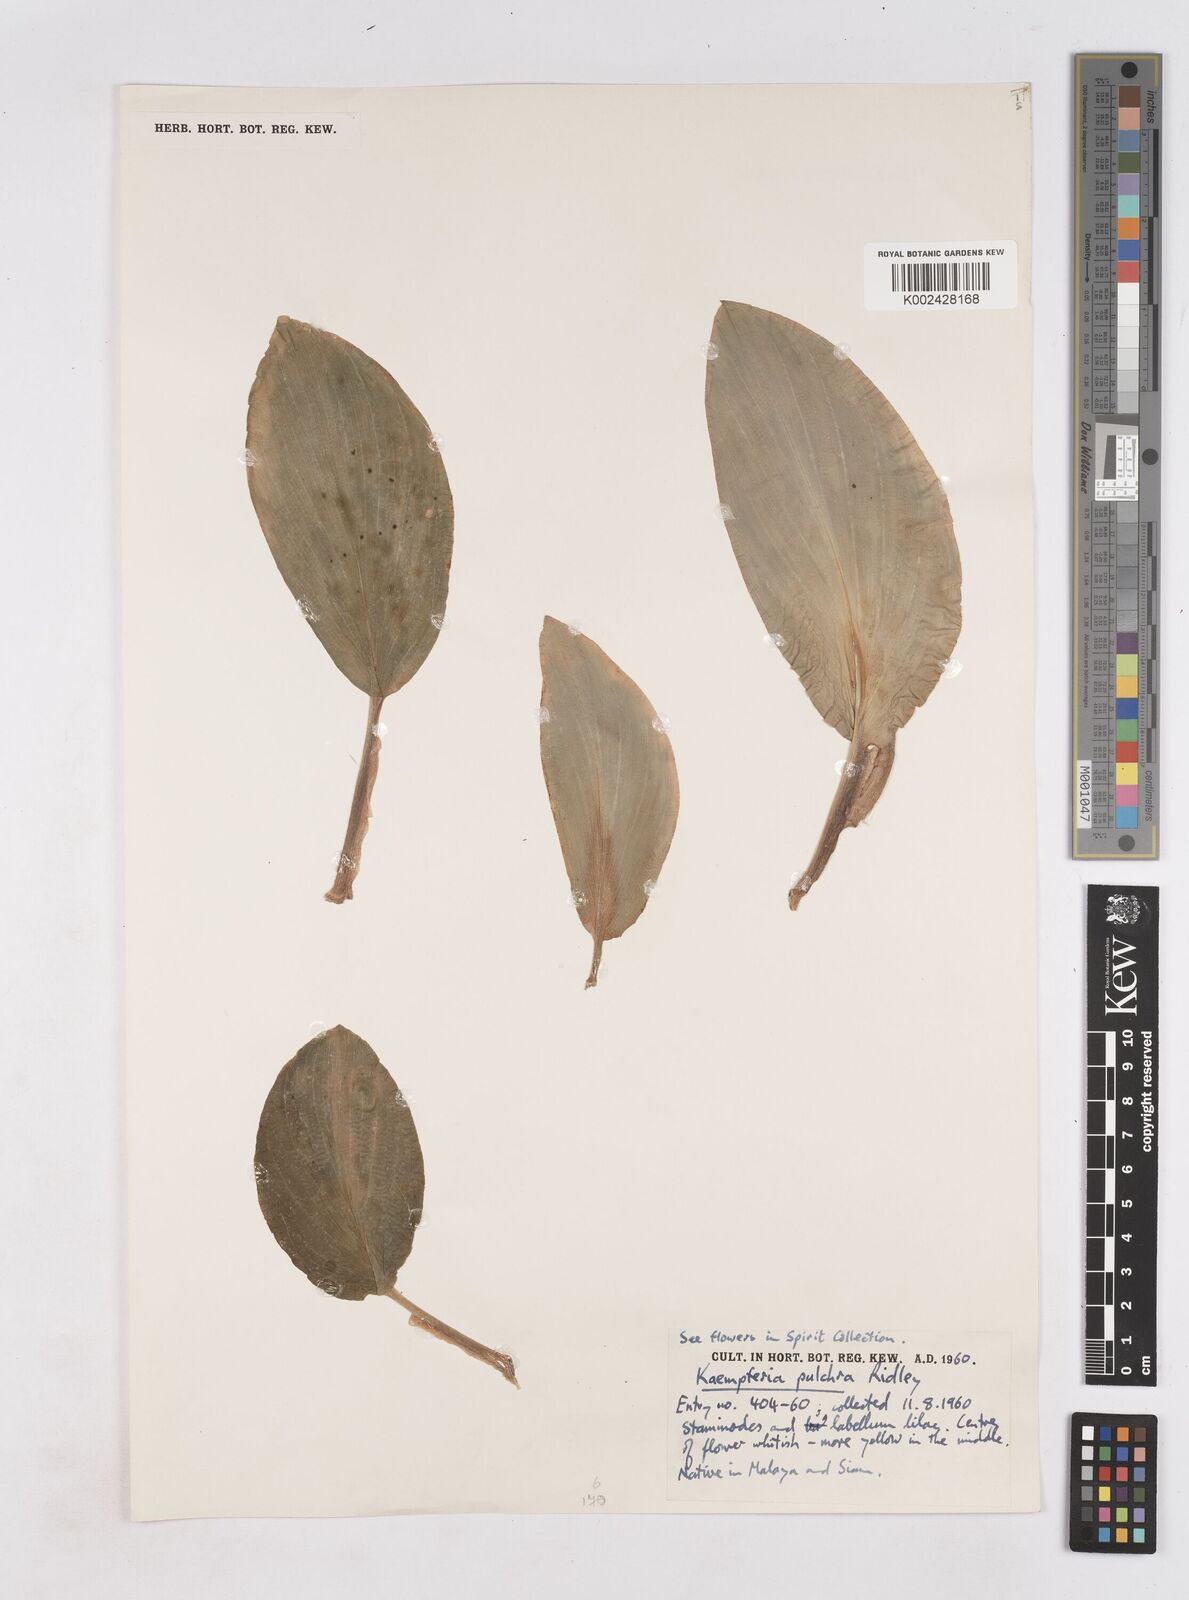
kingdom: Plantae
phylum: Tracheophyta
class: Liliopsida
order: Zingiberales
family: Zingiberaceae
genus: Kaempferia
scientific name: Kaempferia pulchra
